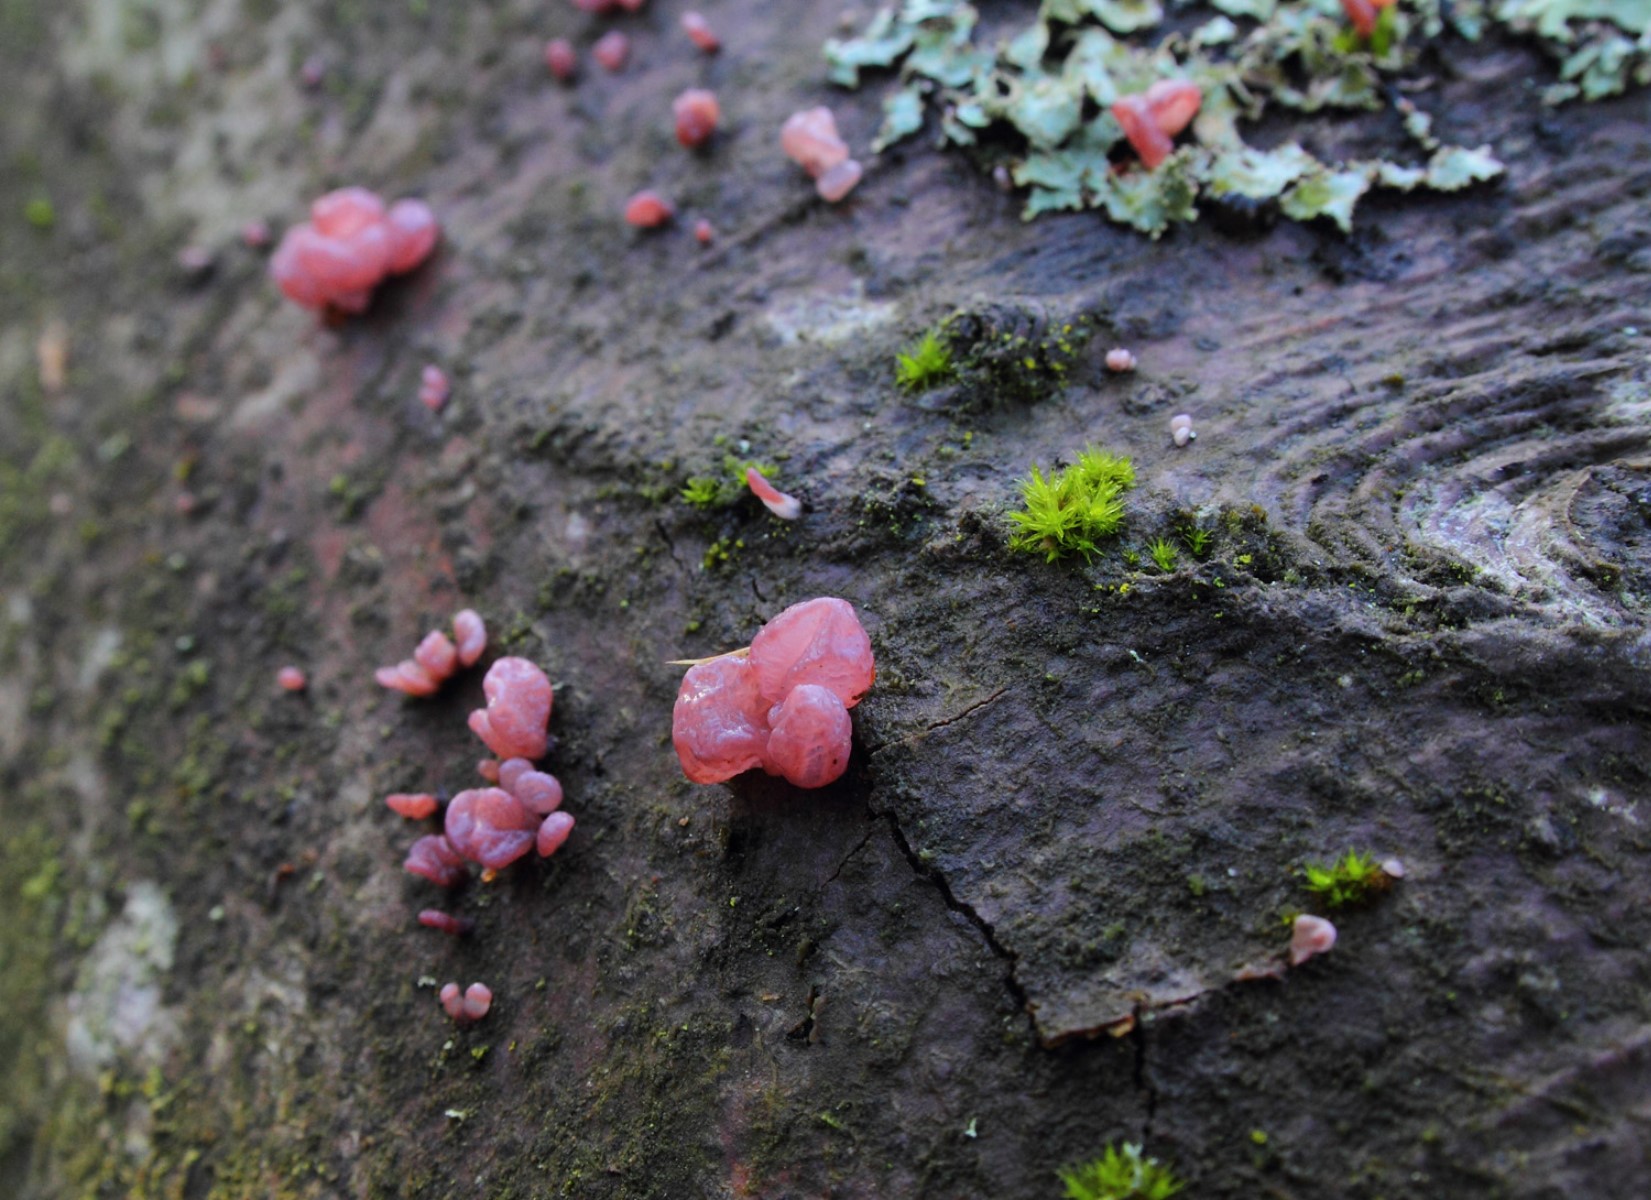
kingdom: Fungi
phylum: Ascomycota
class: Leotiomycetes
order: Helotiales
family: Gelatinodiscaceae
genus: Ascocoryne
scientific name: Ascocoryne sarcoides
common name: rødlilla sejskive
